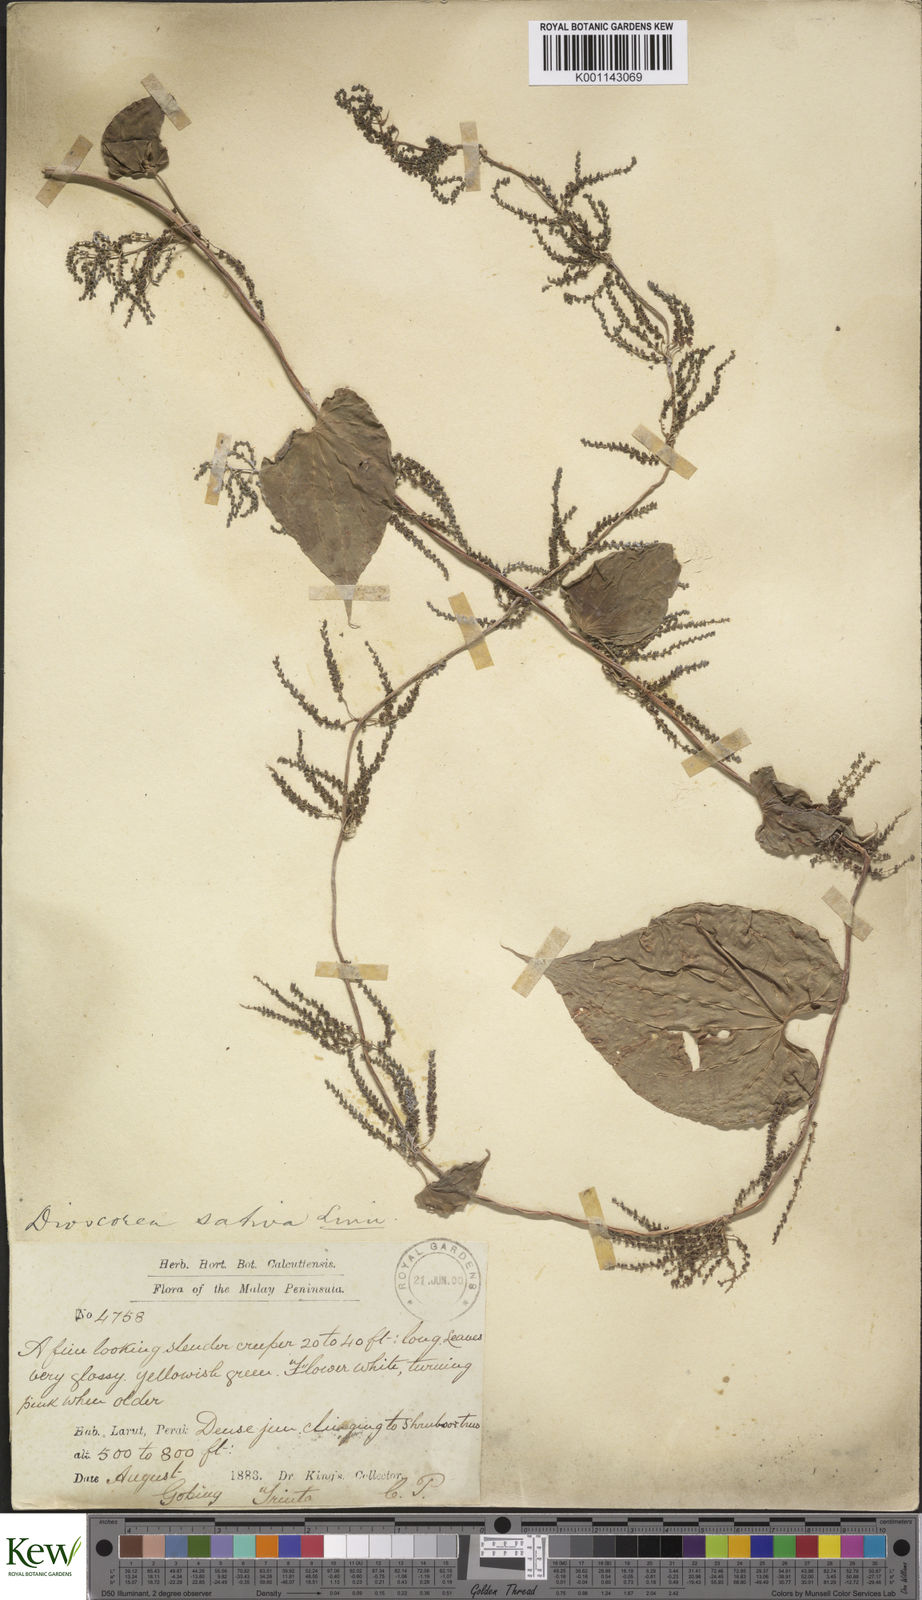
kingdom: Plantae
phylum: Tracheophyta
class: Liliopsida
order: Dioscoreales
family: Dioscoreaceae
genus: Dioscorea
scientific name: Dioscorea bulbifera
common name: Air yam
